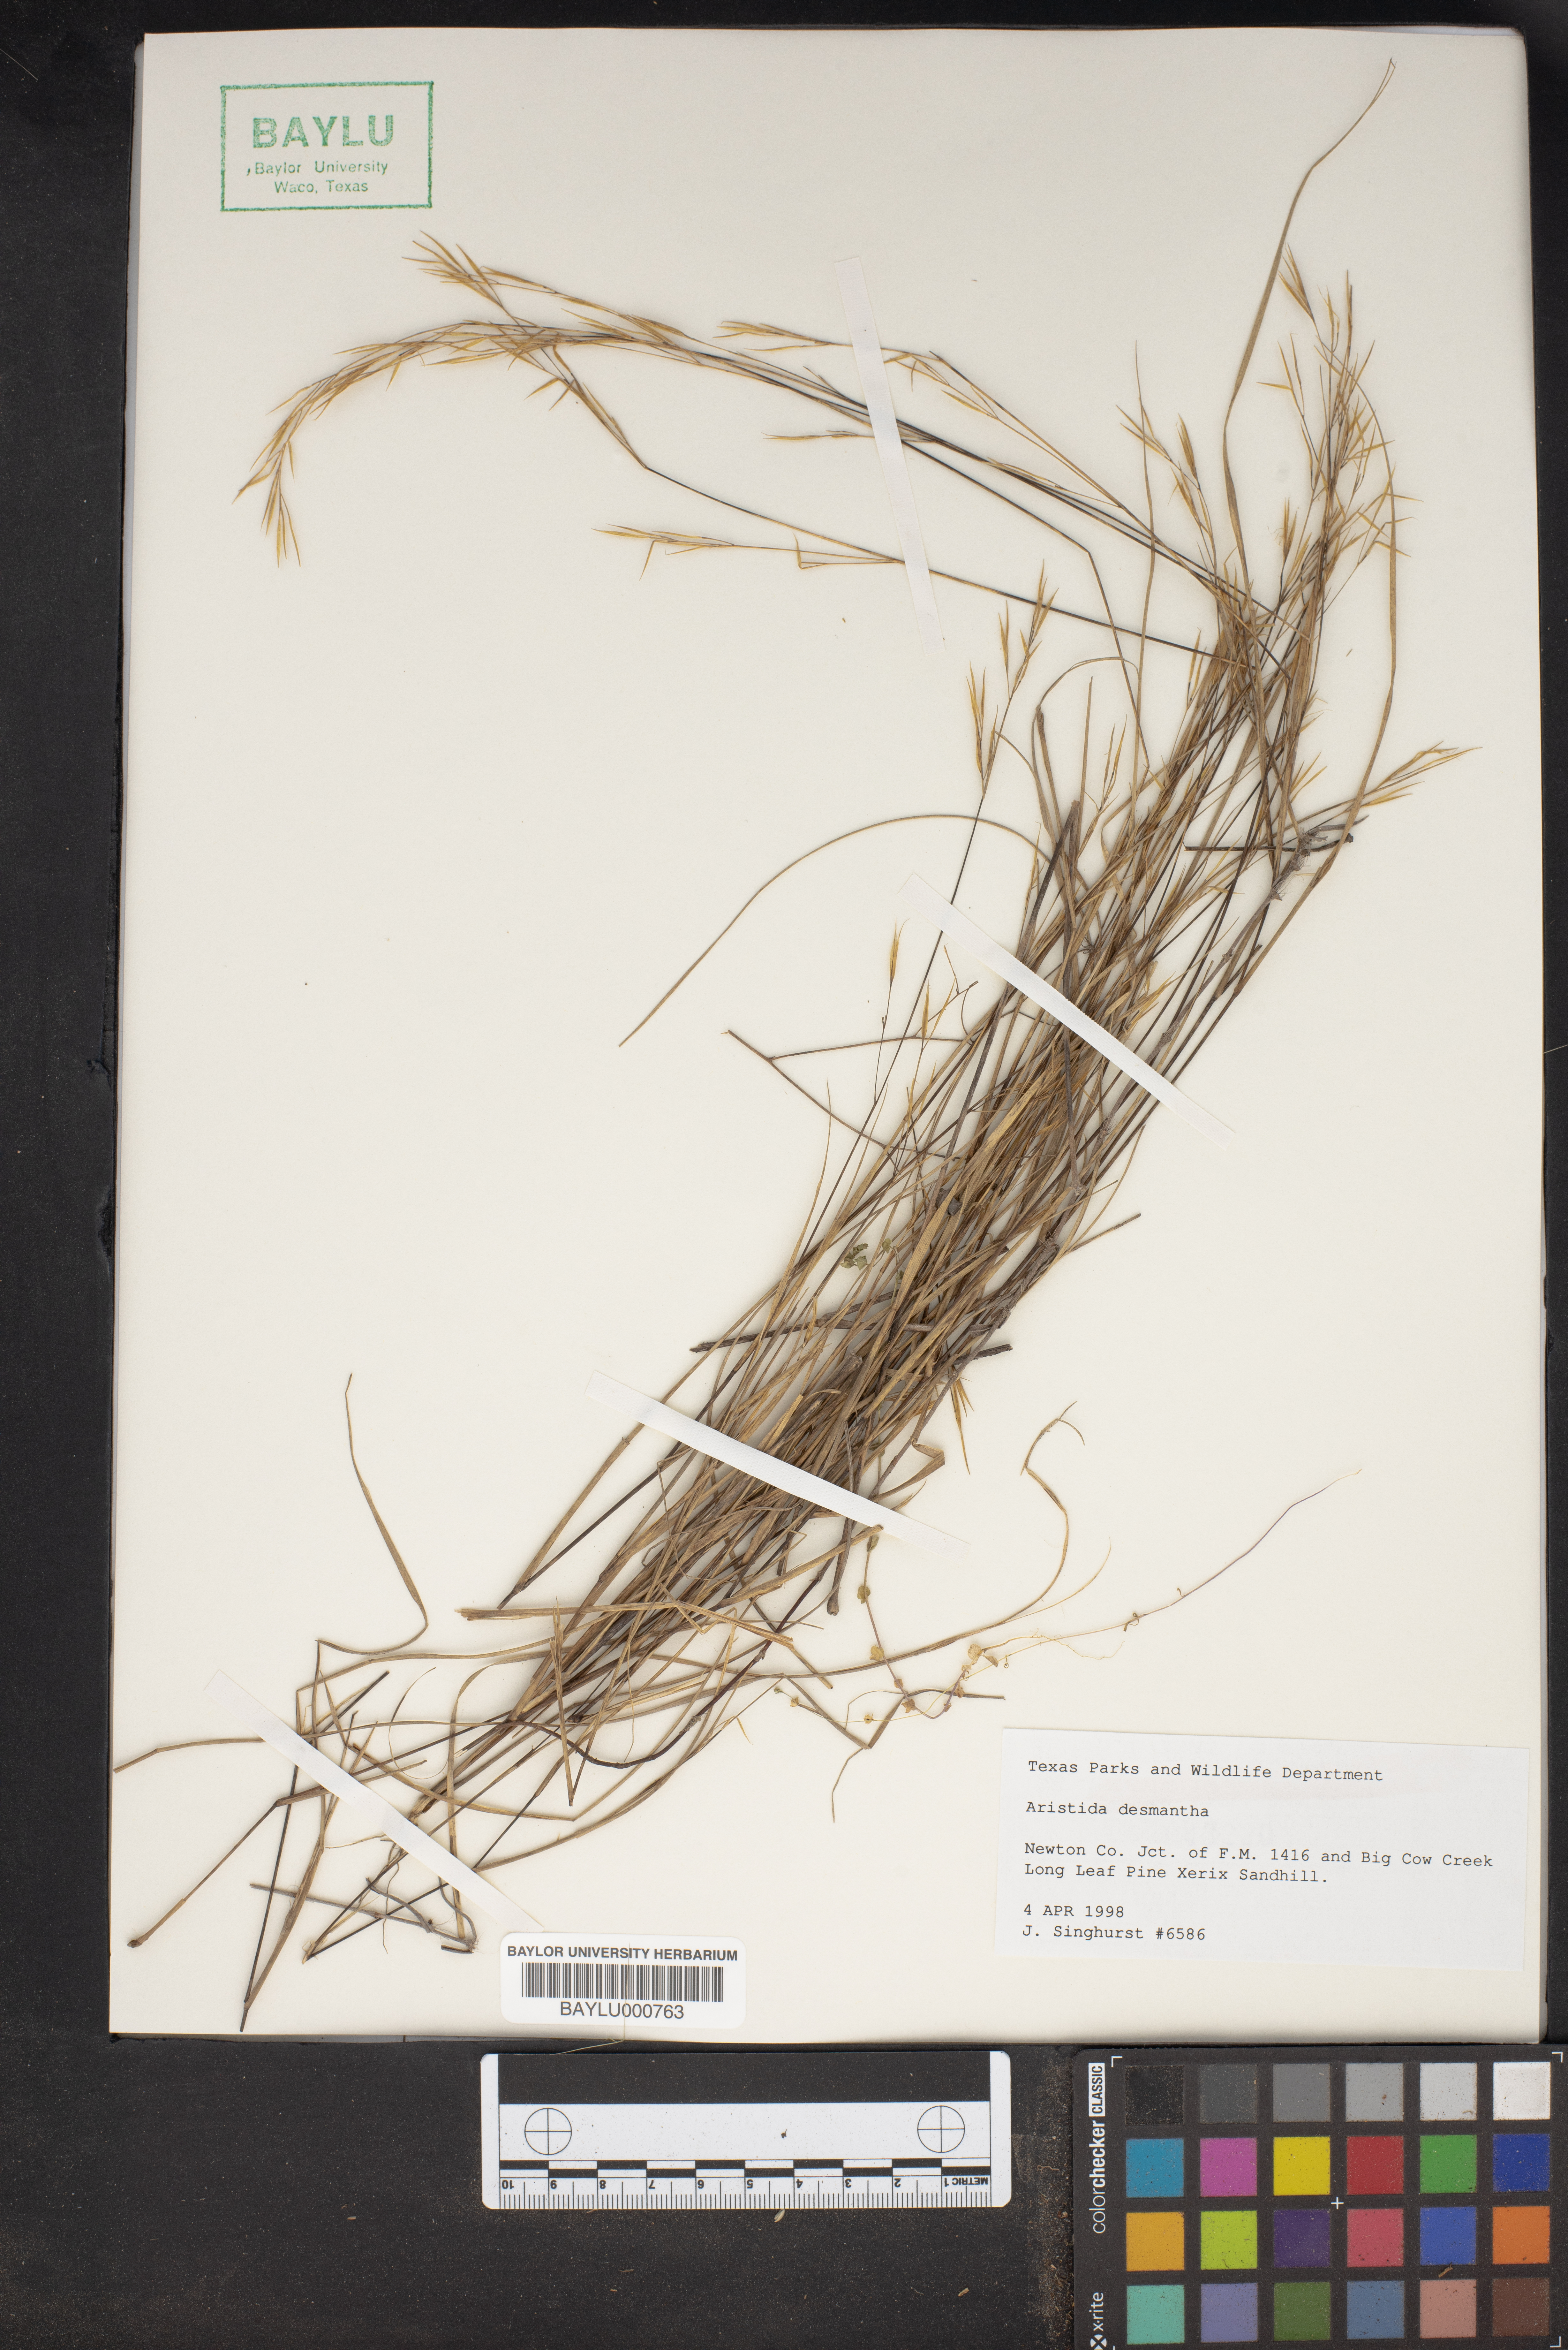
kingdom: Plantae
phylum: Tracheophyta
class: Liliopsida
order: Poales
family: Poaceae
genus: Aristida
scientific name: Aristida desmantha
